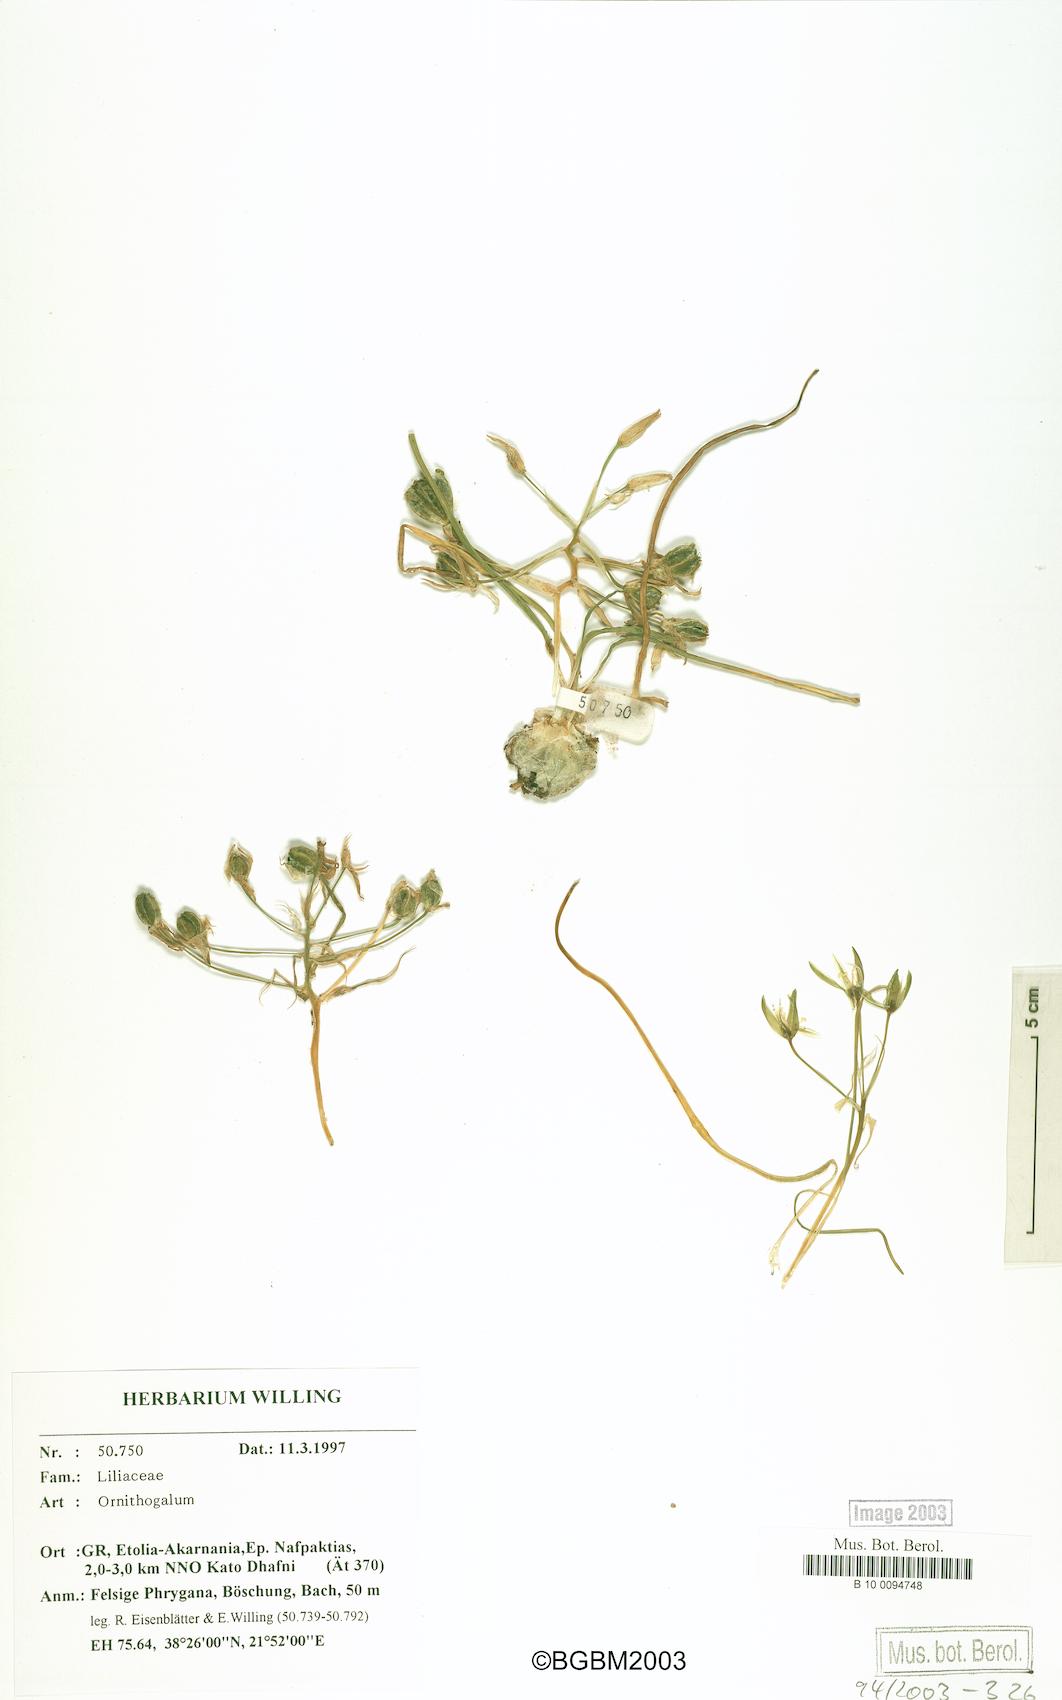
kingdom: Plantae
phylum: Tracheophyta
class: Liliopsida
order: Asparagales
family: Asparagaceae
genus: Ornithogalum
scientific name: Ornithogalum
